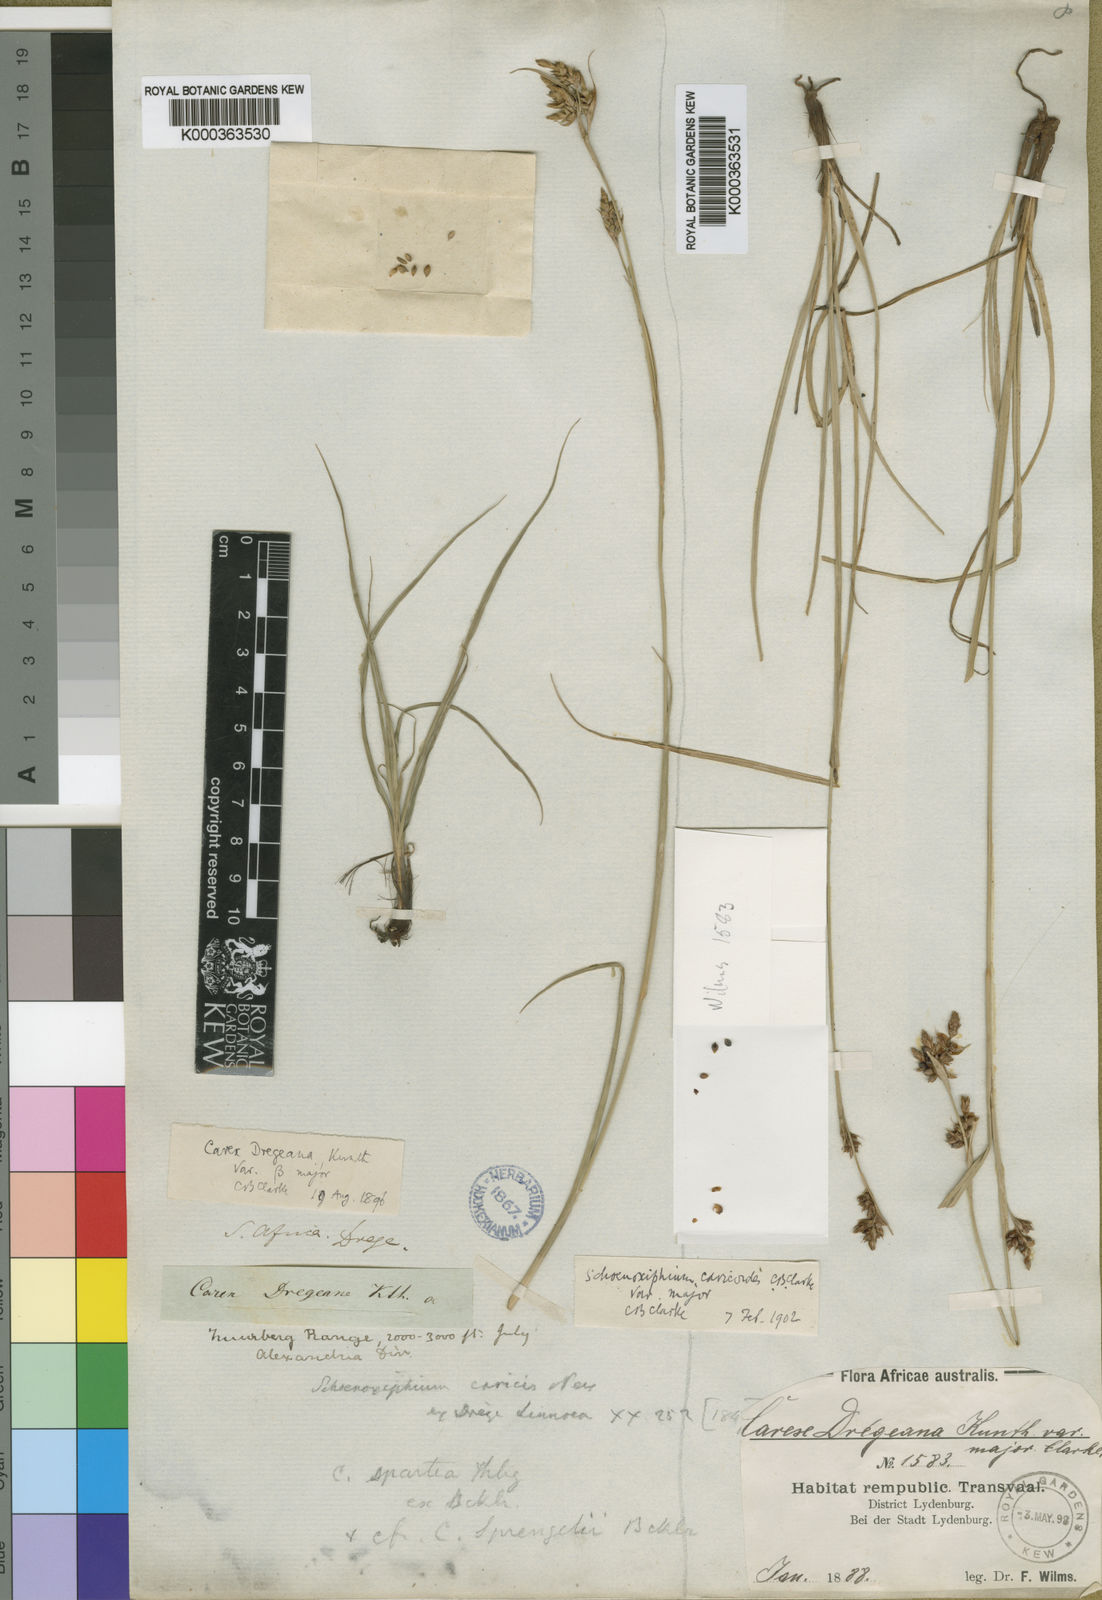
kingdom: Plantae
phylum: Tracheophyta
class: Liliopsida
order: Poales
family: Cyperaceae
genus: Carex
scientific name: Carex spartea
